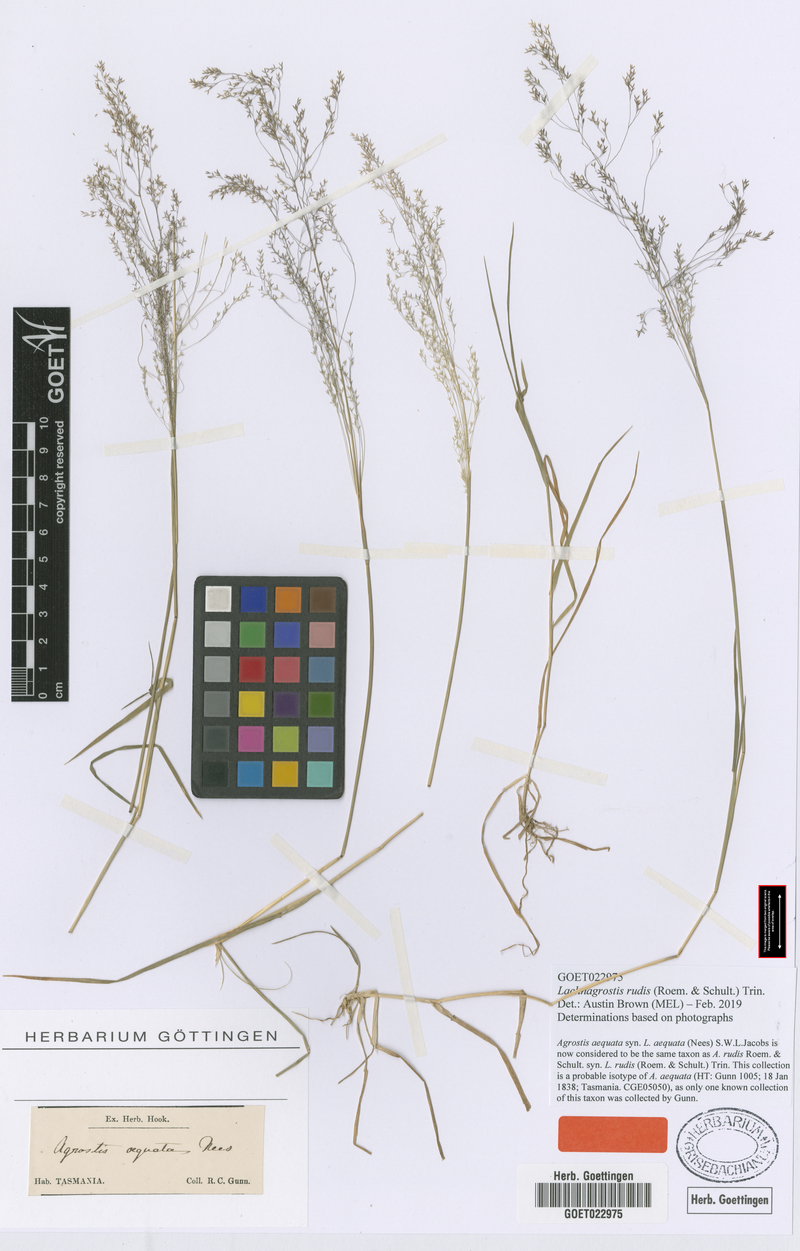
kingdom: Plantae
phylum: Tracheophyta
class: Liliopsida
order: Poales
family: Poaceae
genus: Lachnagrostis
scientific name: Lachnagrostis rudis
